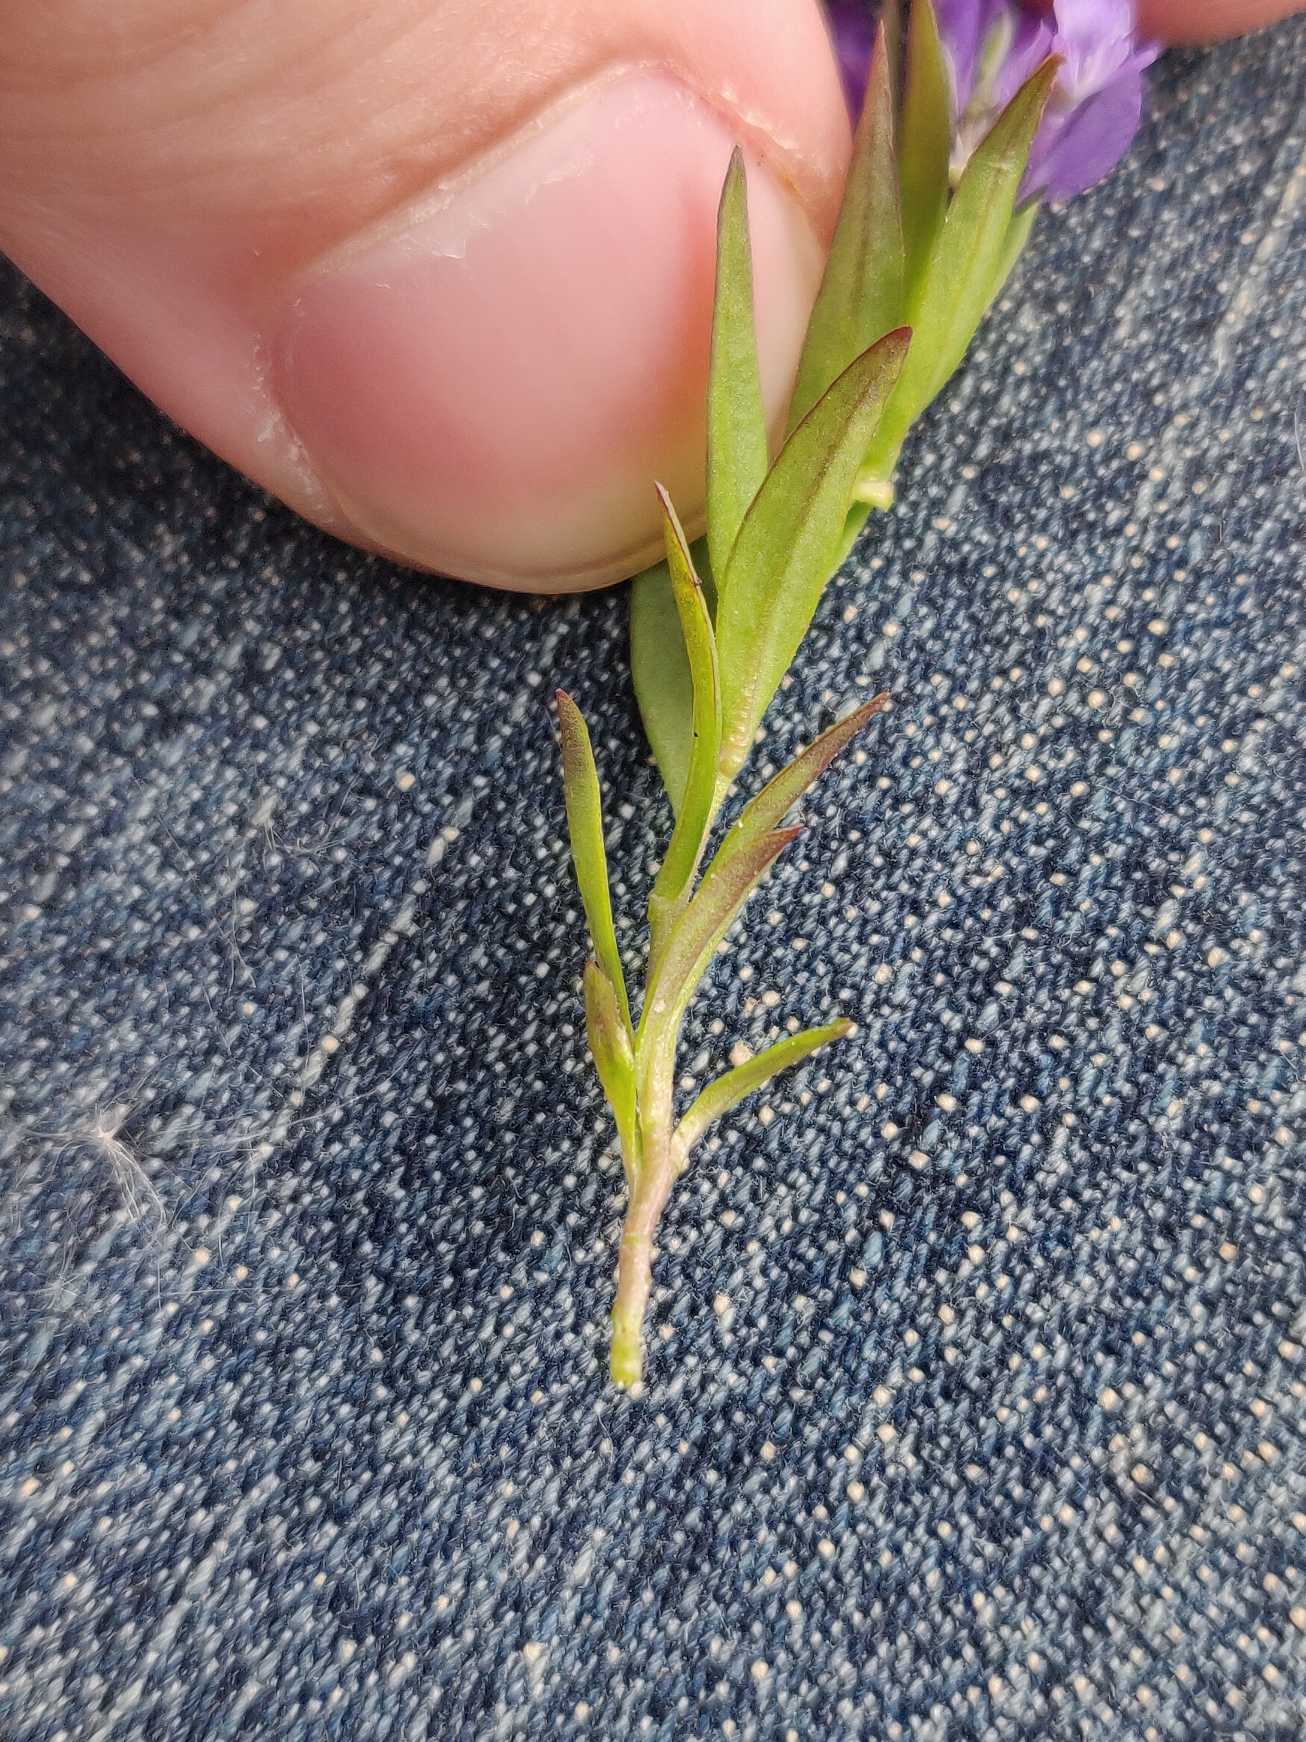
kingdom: Plantae
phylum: Tracheophyta
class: Magnoliopsida
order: Fabales
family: Polygalaceae
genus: Polygala
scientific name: Polygala vulgaris
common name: Almindelig mælkeurt
